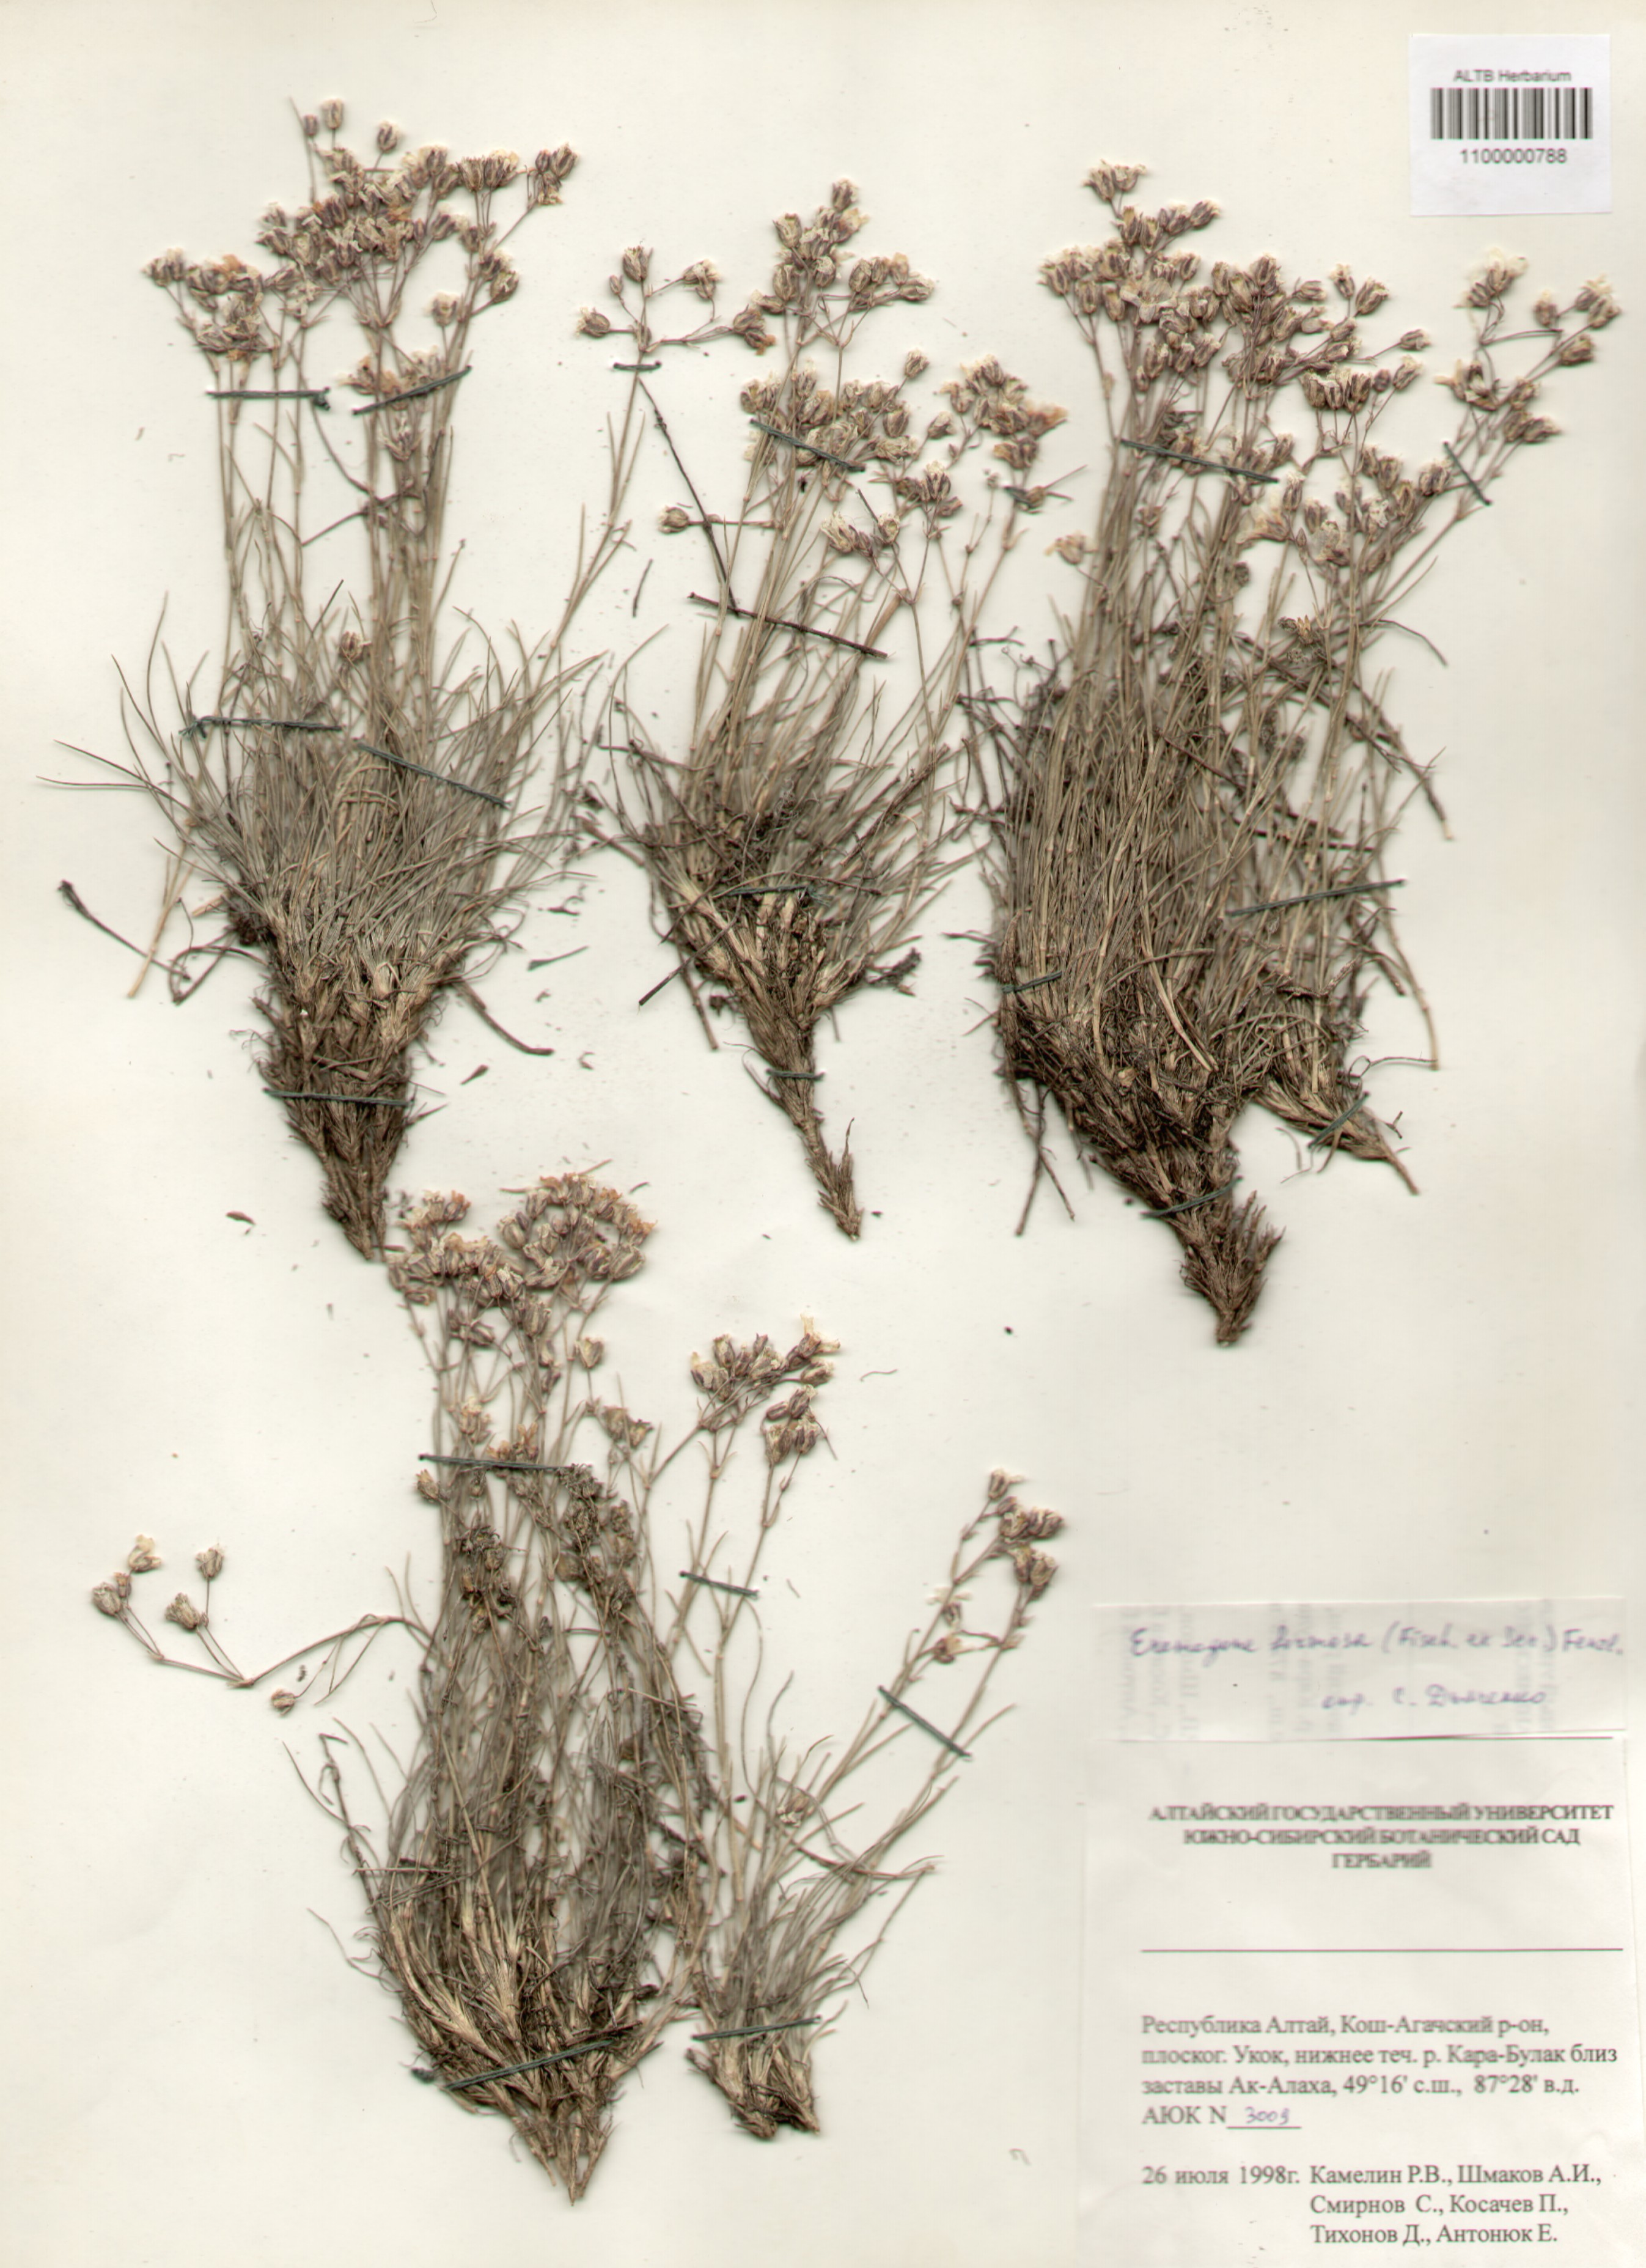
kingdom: Plantae
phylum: Tracheophyta
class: Magnoliopsida
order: Caryophyllales
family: Caryophyllaceae
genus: Eremogone
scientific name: Eremogone formosa
